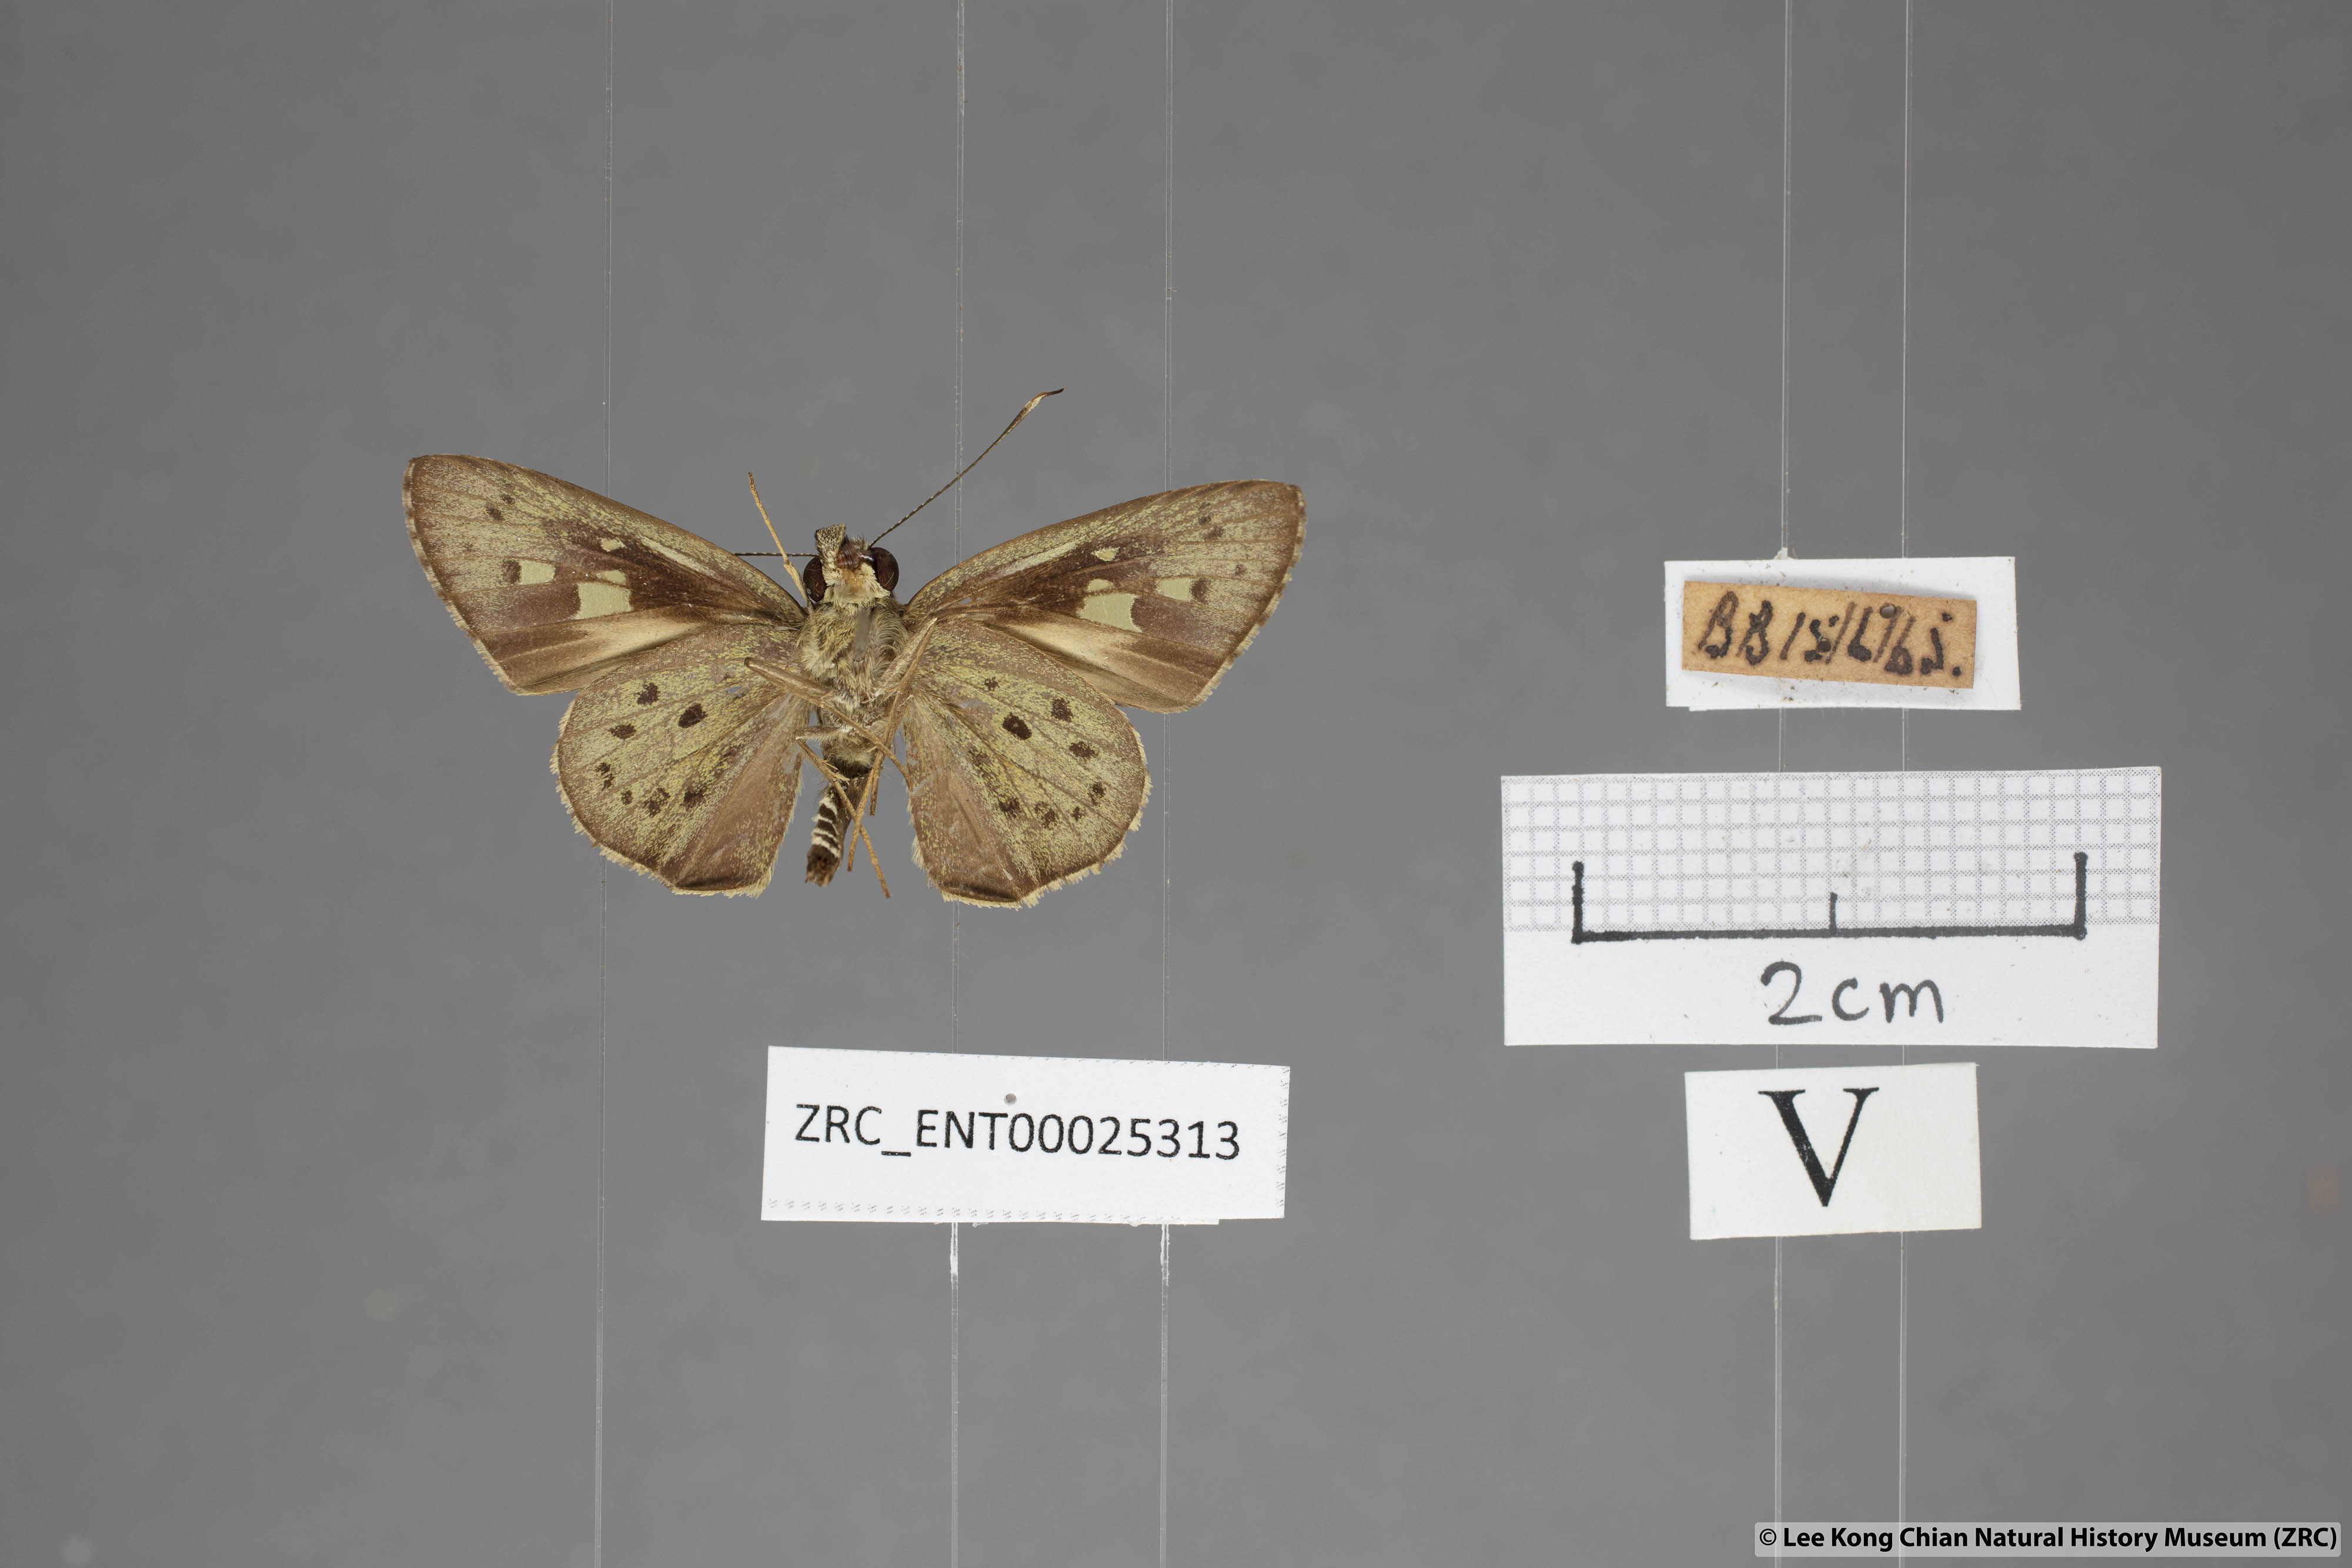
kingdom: Animalia
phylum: Arthropoda
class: Insecta
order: Lepidoptera
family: Hesperiidae
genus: Salanoemia
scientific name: Salanoemia sala
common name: Maculate lancer
